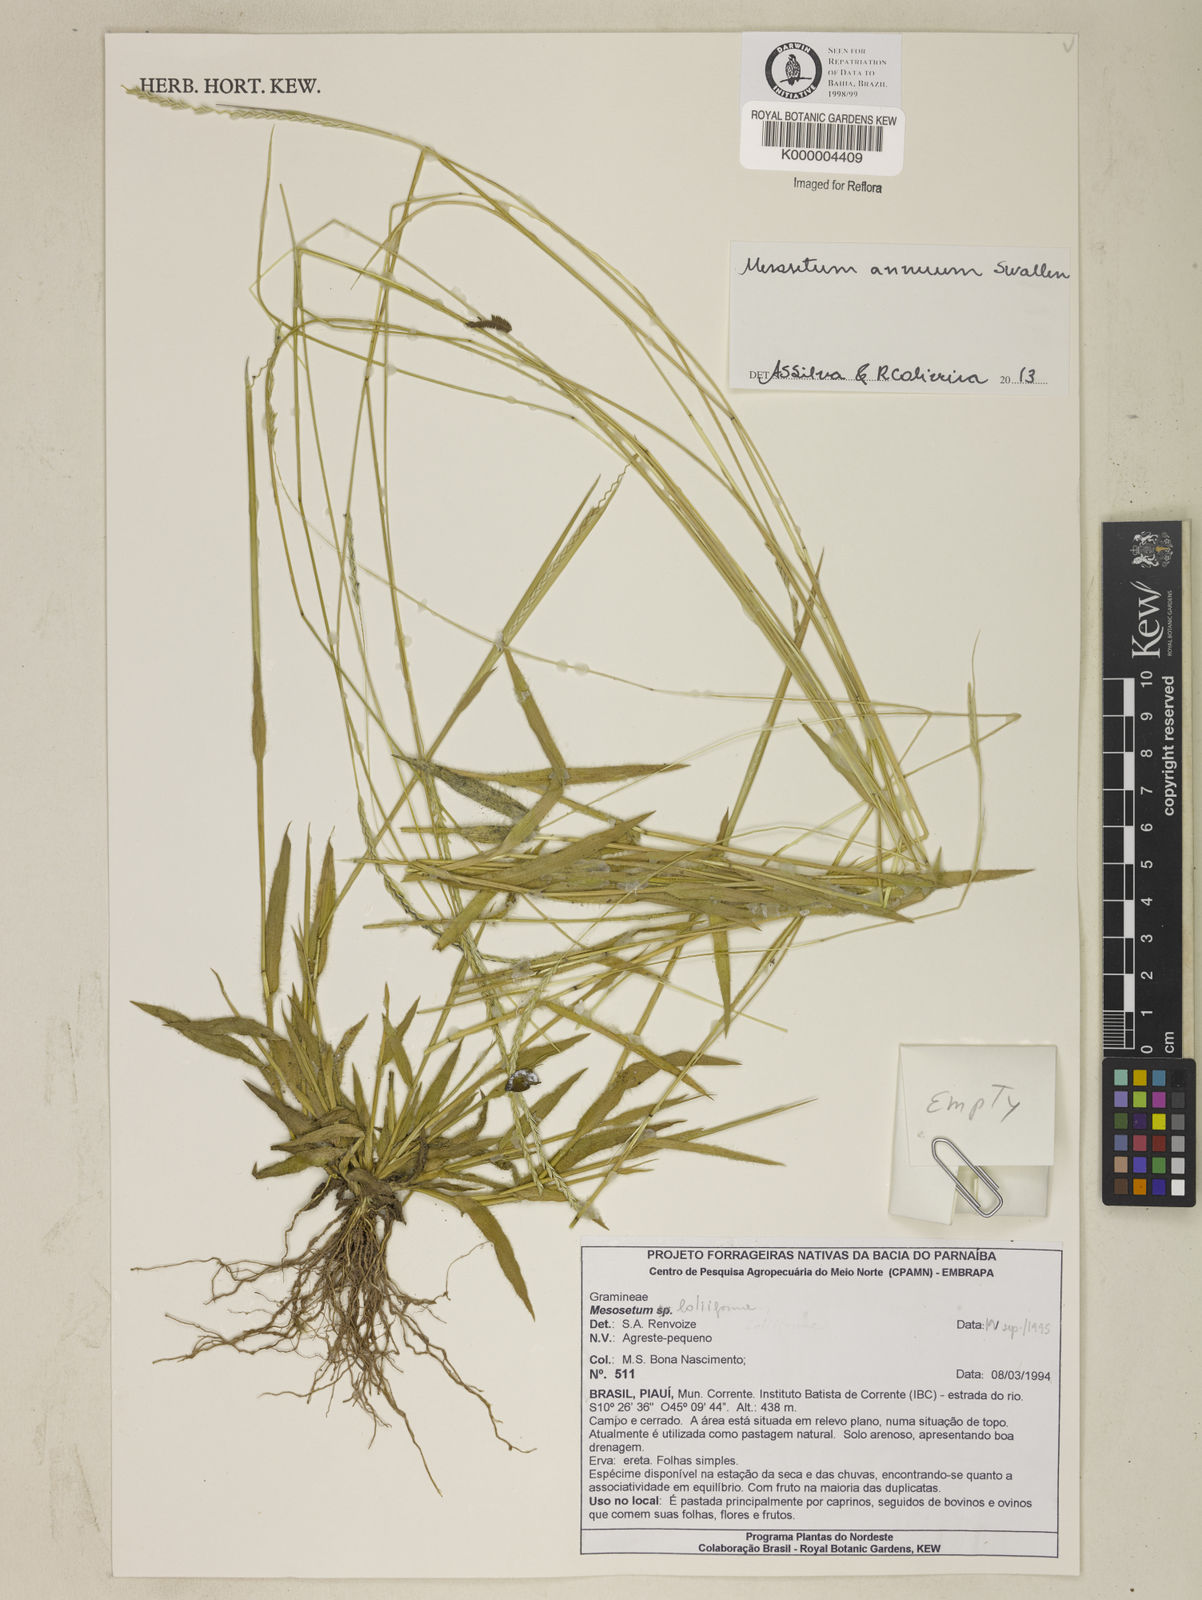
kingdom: Plantae
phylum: Tracheophyta
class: Liliopsida
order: Poales
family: Poaceae
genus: Mesosetum
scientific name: Mesosetum annuum
